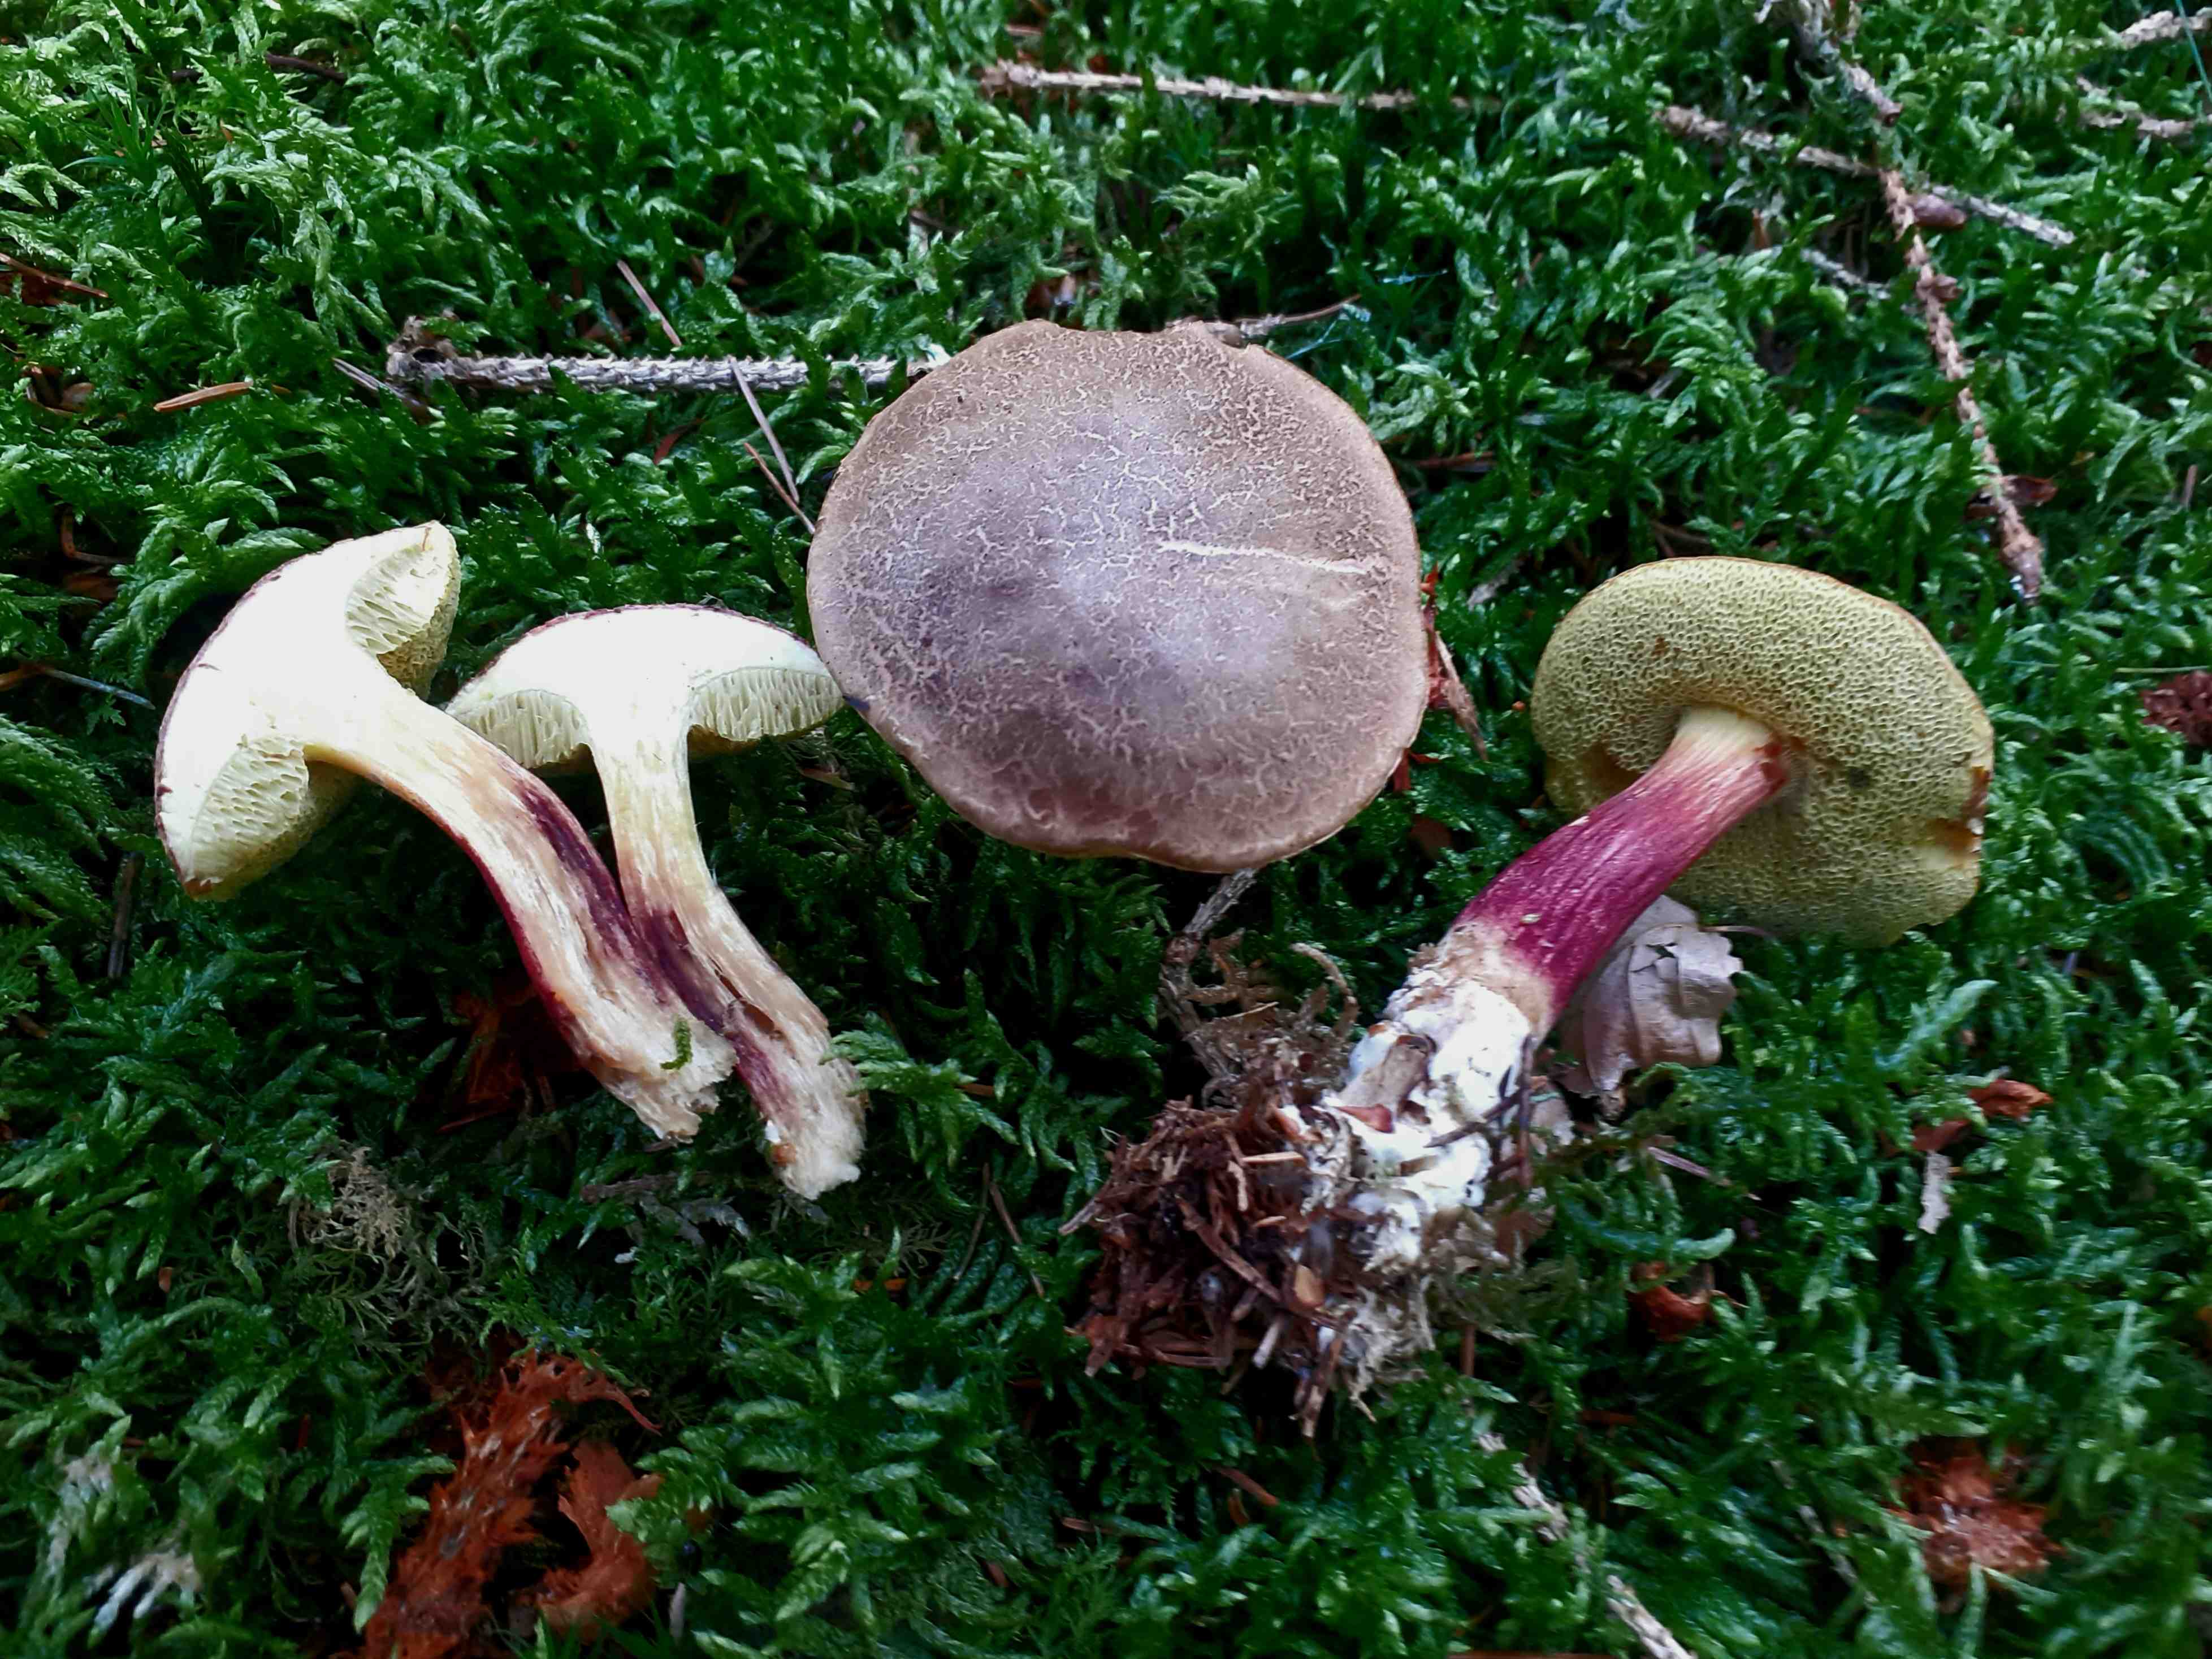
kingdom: Fungi
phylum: Basidiomycota
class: Agaricomycetes
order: Boletales
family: Boletaceae
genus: Xerocomellus
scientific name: Xerocomellus chrysenteron
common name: rødsprukken rørhat
